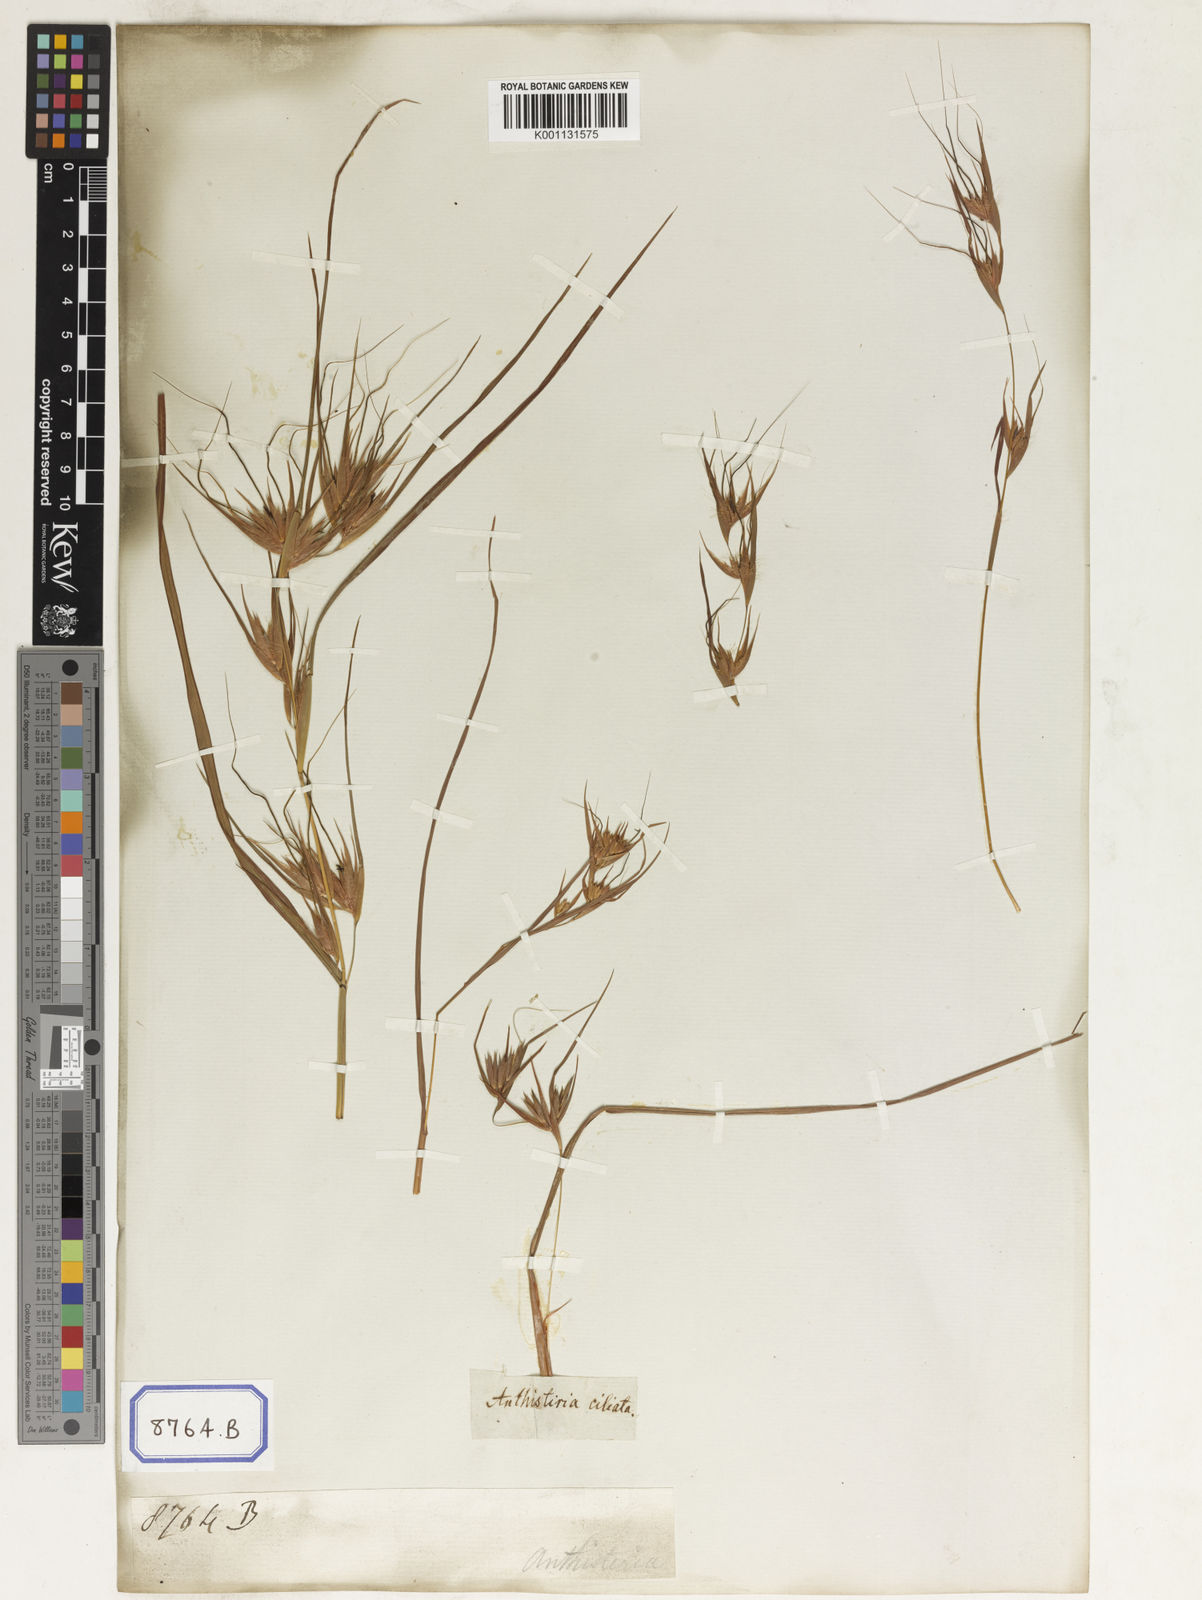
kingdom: Plantae
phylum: Tracheophyta
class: Liliopsida
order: Poales
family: Poaceae
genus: Themeda
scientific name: Themeda
